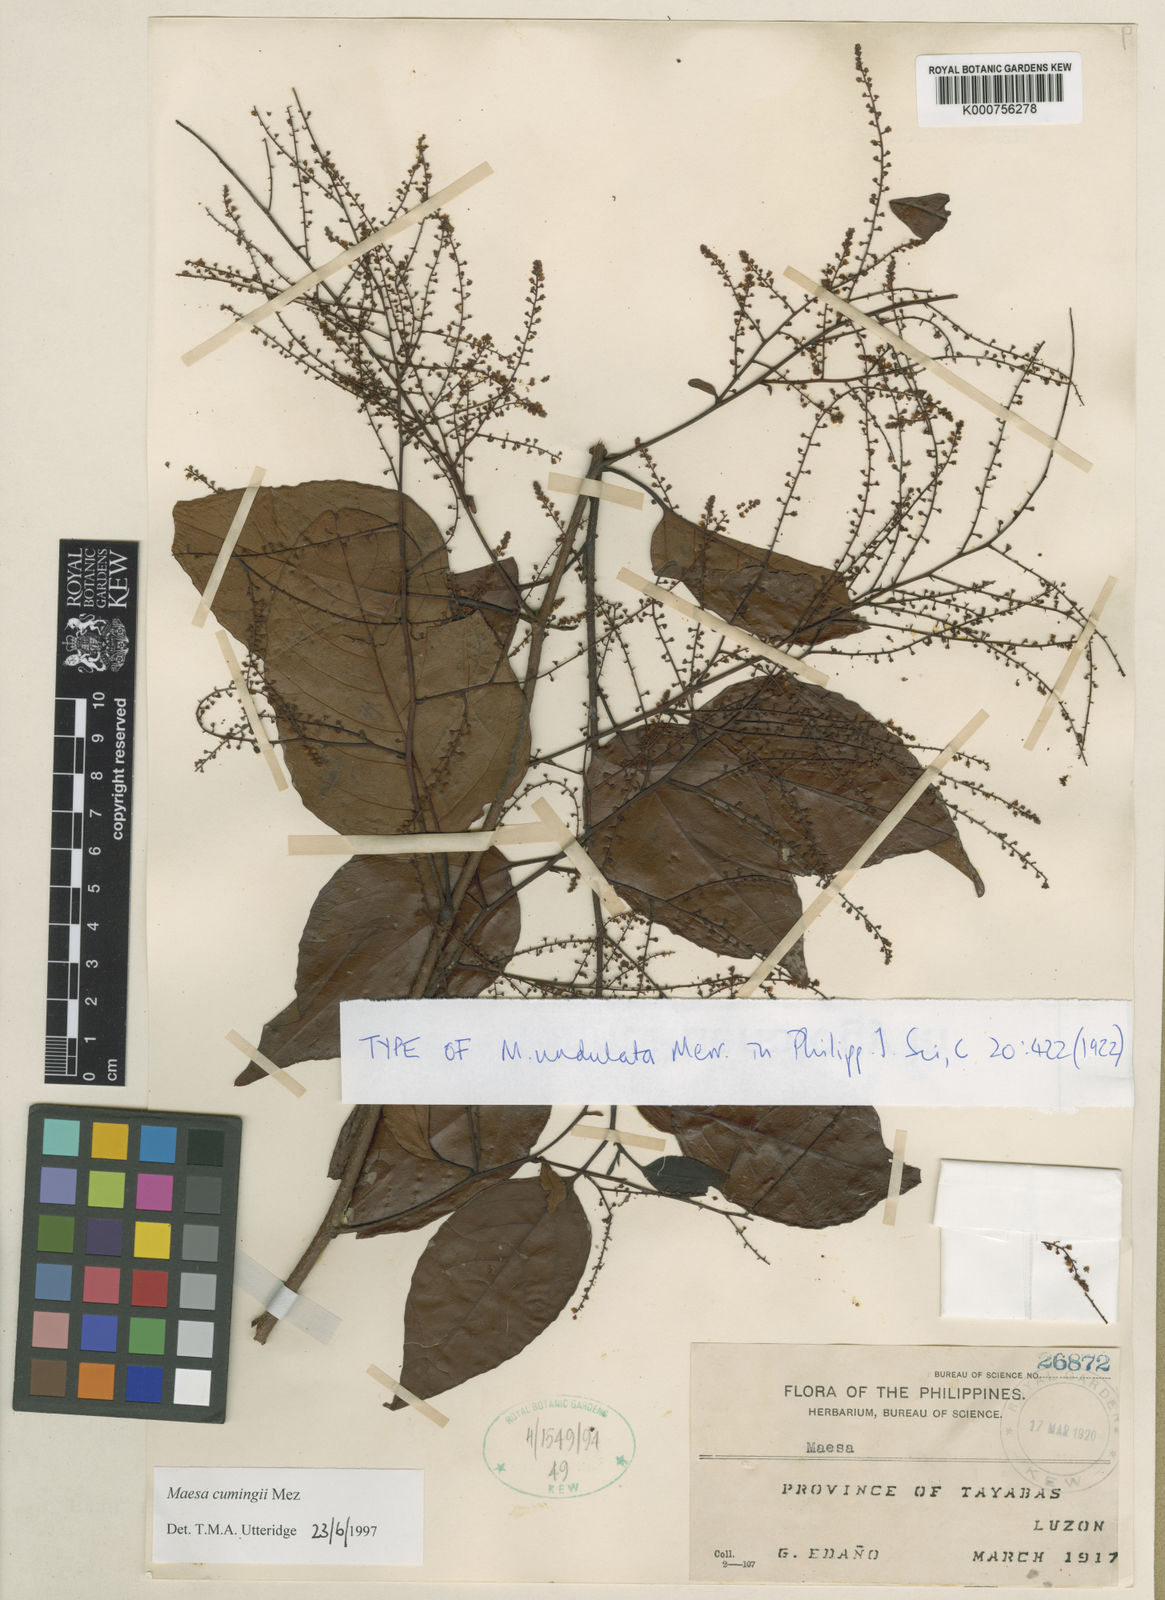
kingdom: Plantae
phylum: Tracheophyta
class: Magnoliopsida
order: Ericales
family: Primulaceae
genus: Maesa
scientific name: Maesa cumingii
